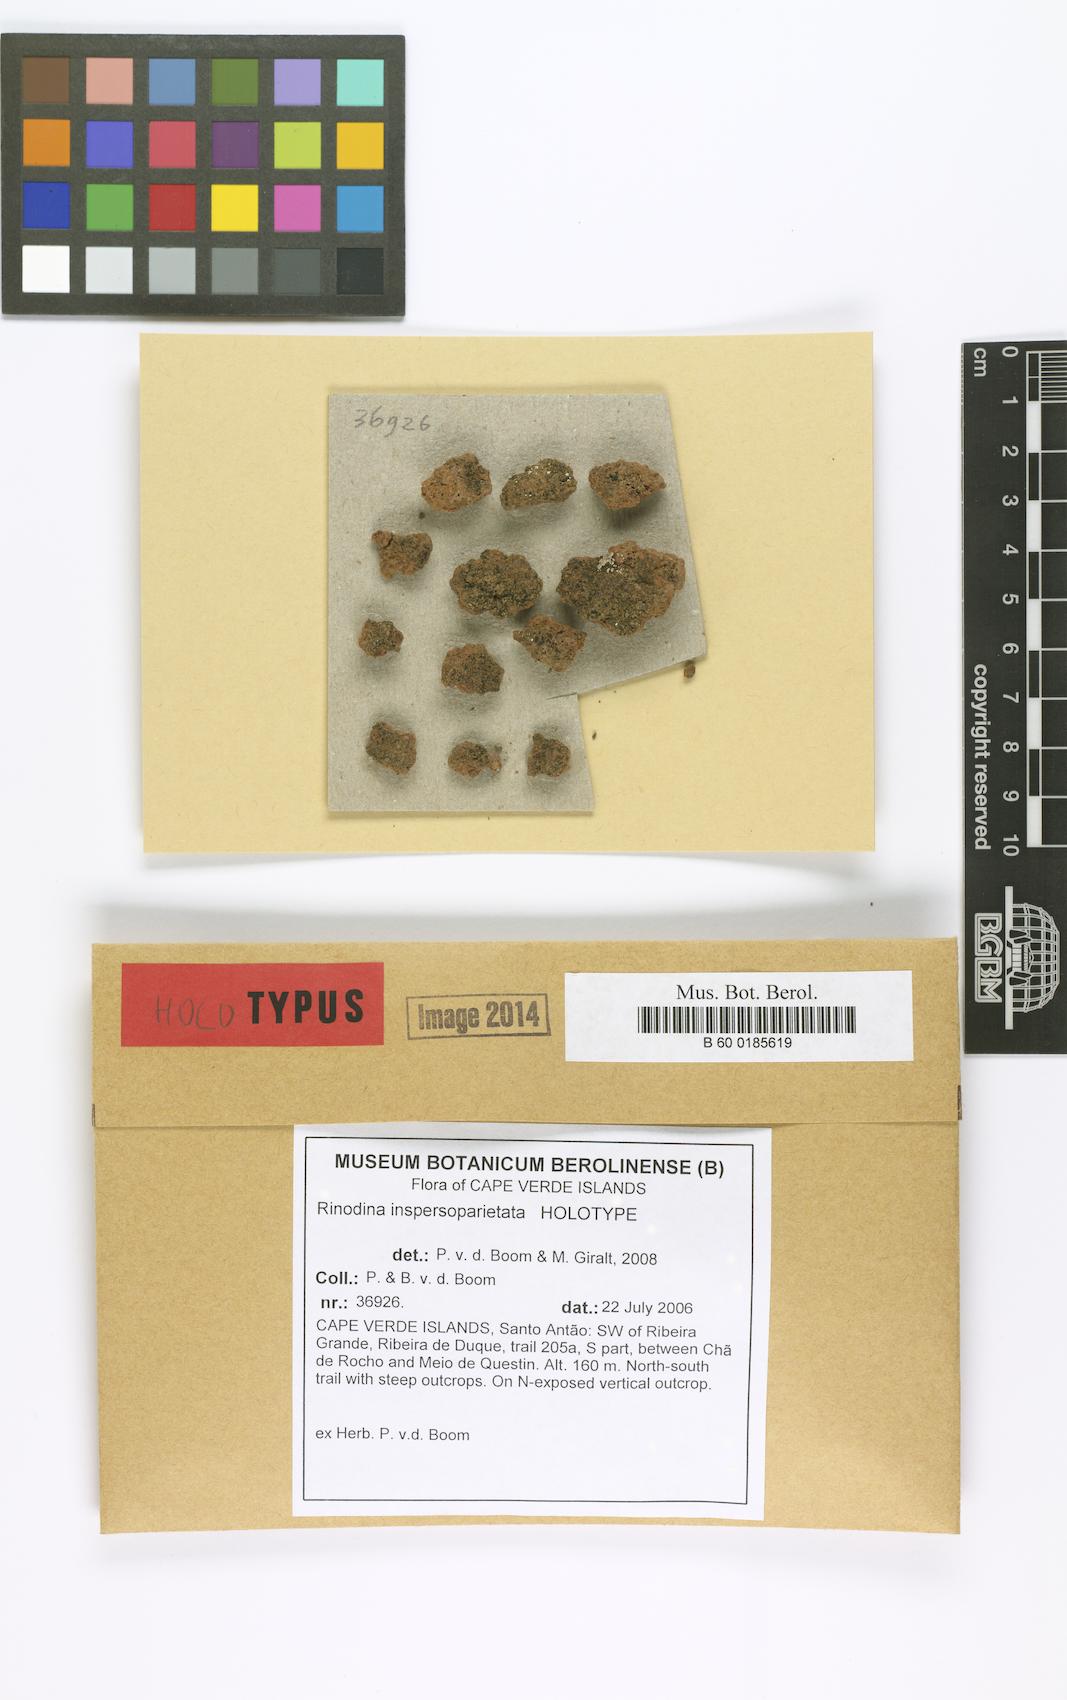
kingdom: Fungi
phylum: Ascomycota
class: Lecanoromycetes
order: Caliciales
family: Physciaceae
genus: Rinodina
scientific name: Rinodina inspersoparietata
